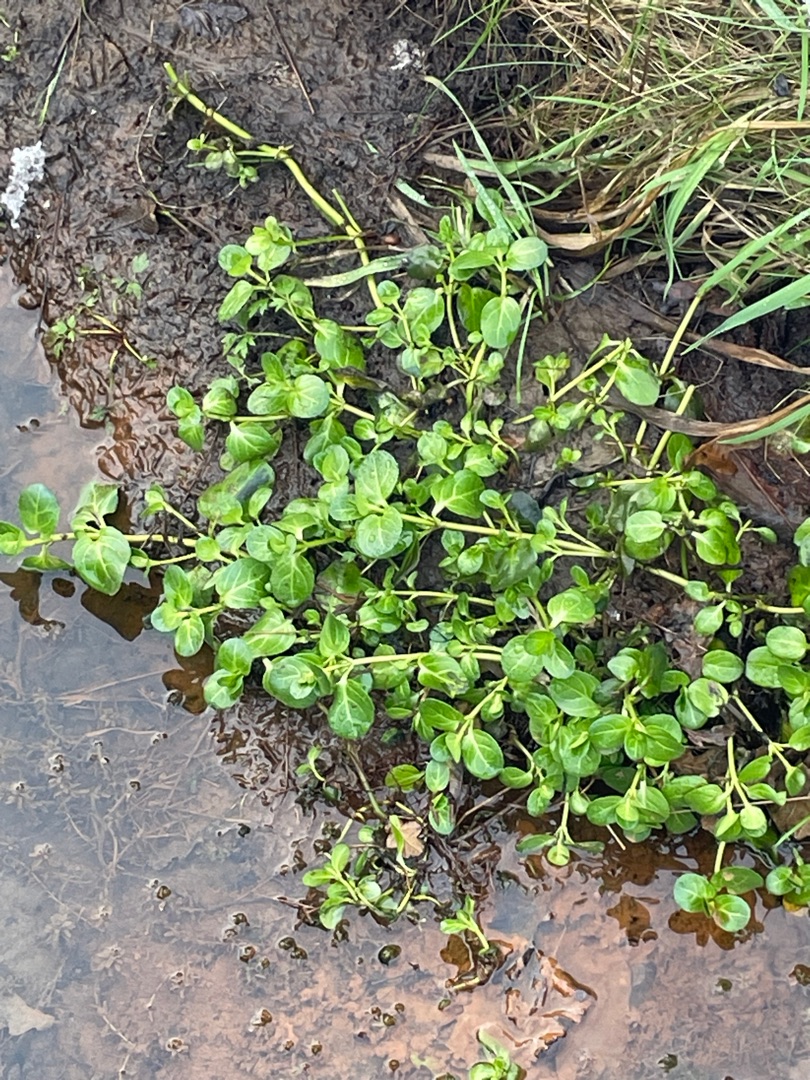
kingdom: Plantae
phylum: Tracheophyta
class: Magnoliopsida
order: Lamiales
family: Plantaginaceae
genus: Veronica
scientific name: Veronica beccabunga
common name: Tykbladet ærenpris
